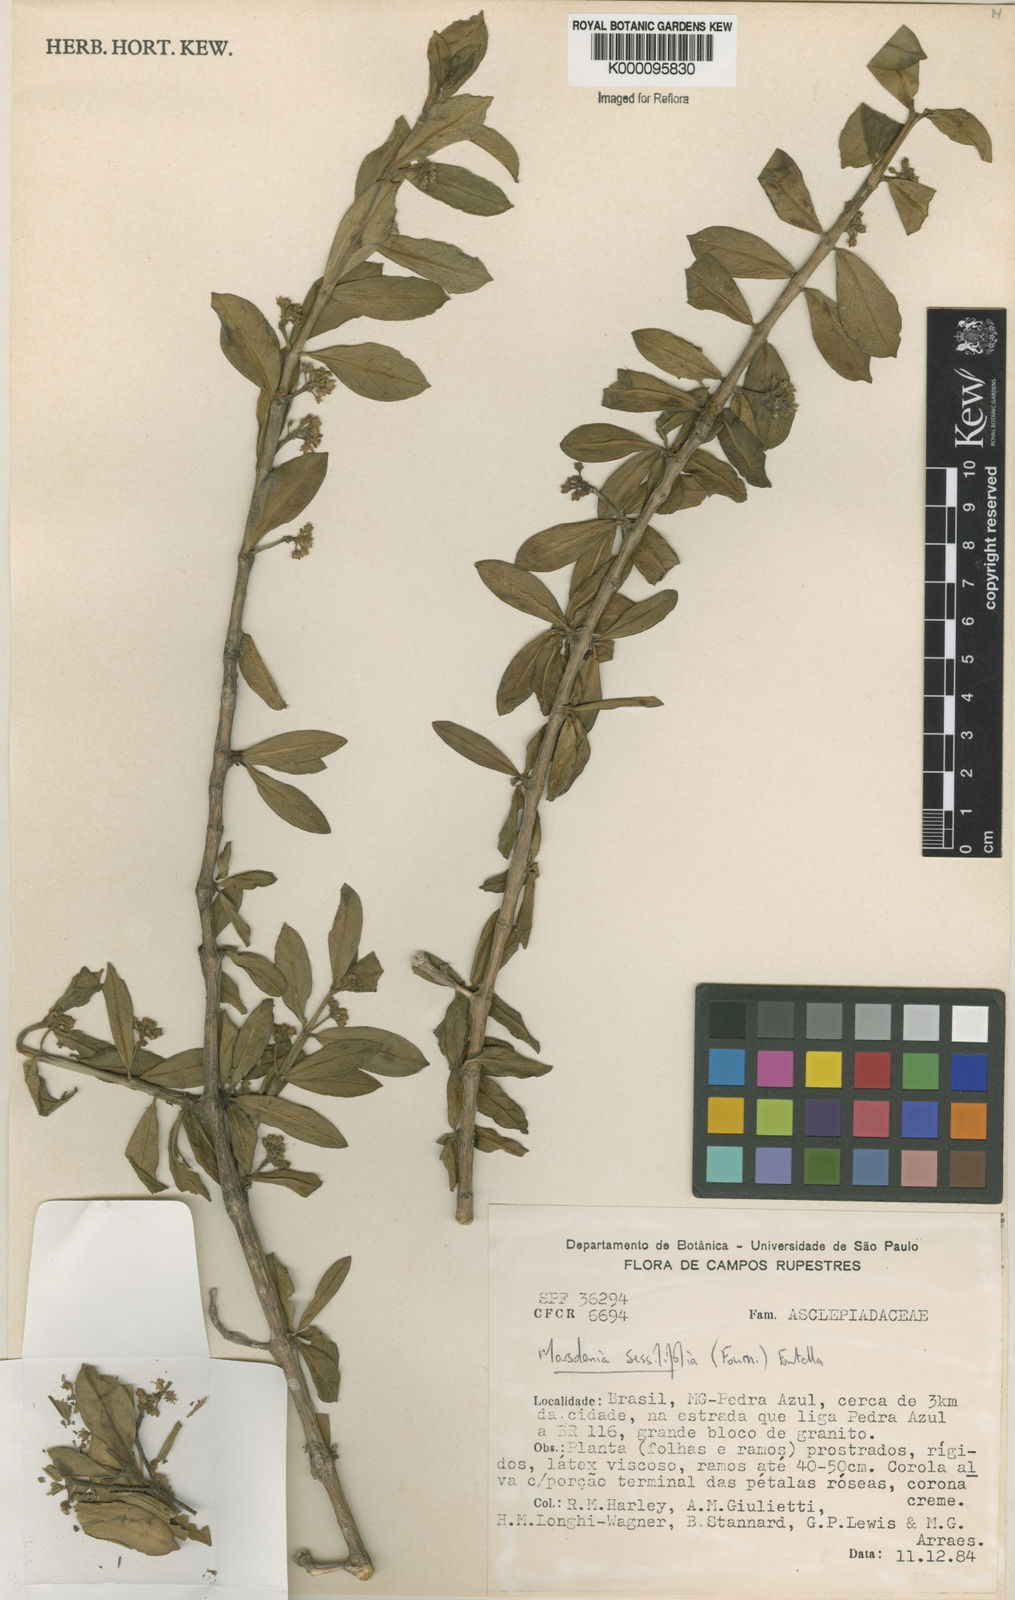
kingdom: Plantae
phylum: Tracheophyta
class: Magnoliopsida
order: Gentianales
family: Apocynaceae
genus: Ruehssia
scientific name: Ruehssia sessilifolia
